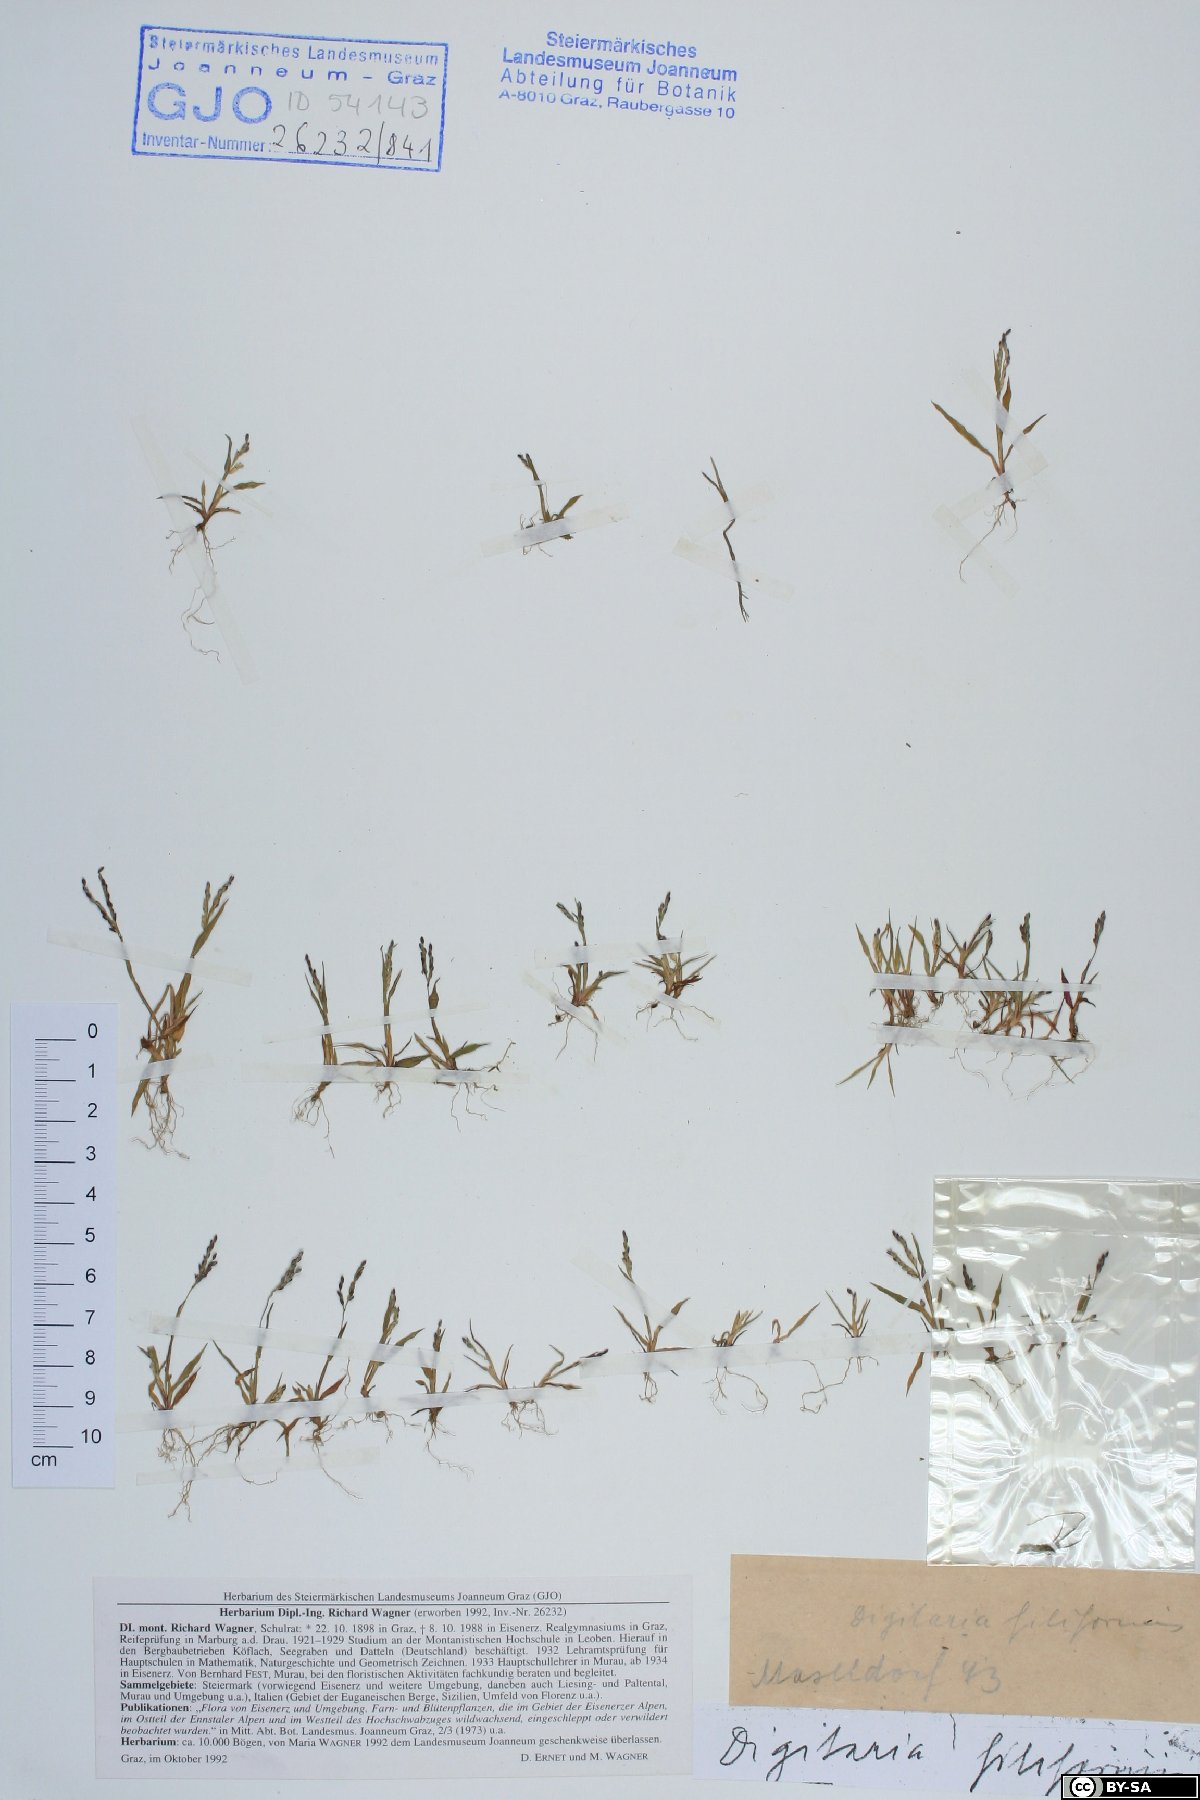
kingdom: Plantae
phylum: Tracheophyta
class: Liliopsida
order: Poales
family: Poaceae
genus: Digitaria
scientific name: Digitaria filiformis
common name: Slender crabgrass
